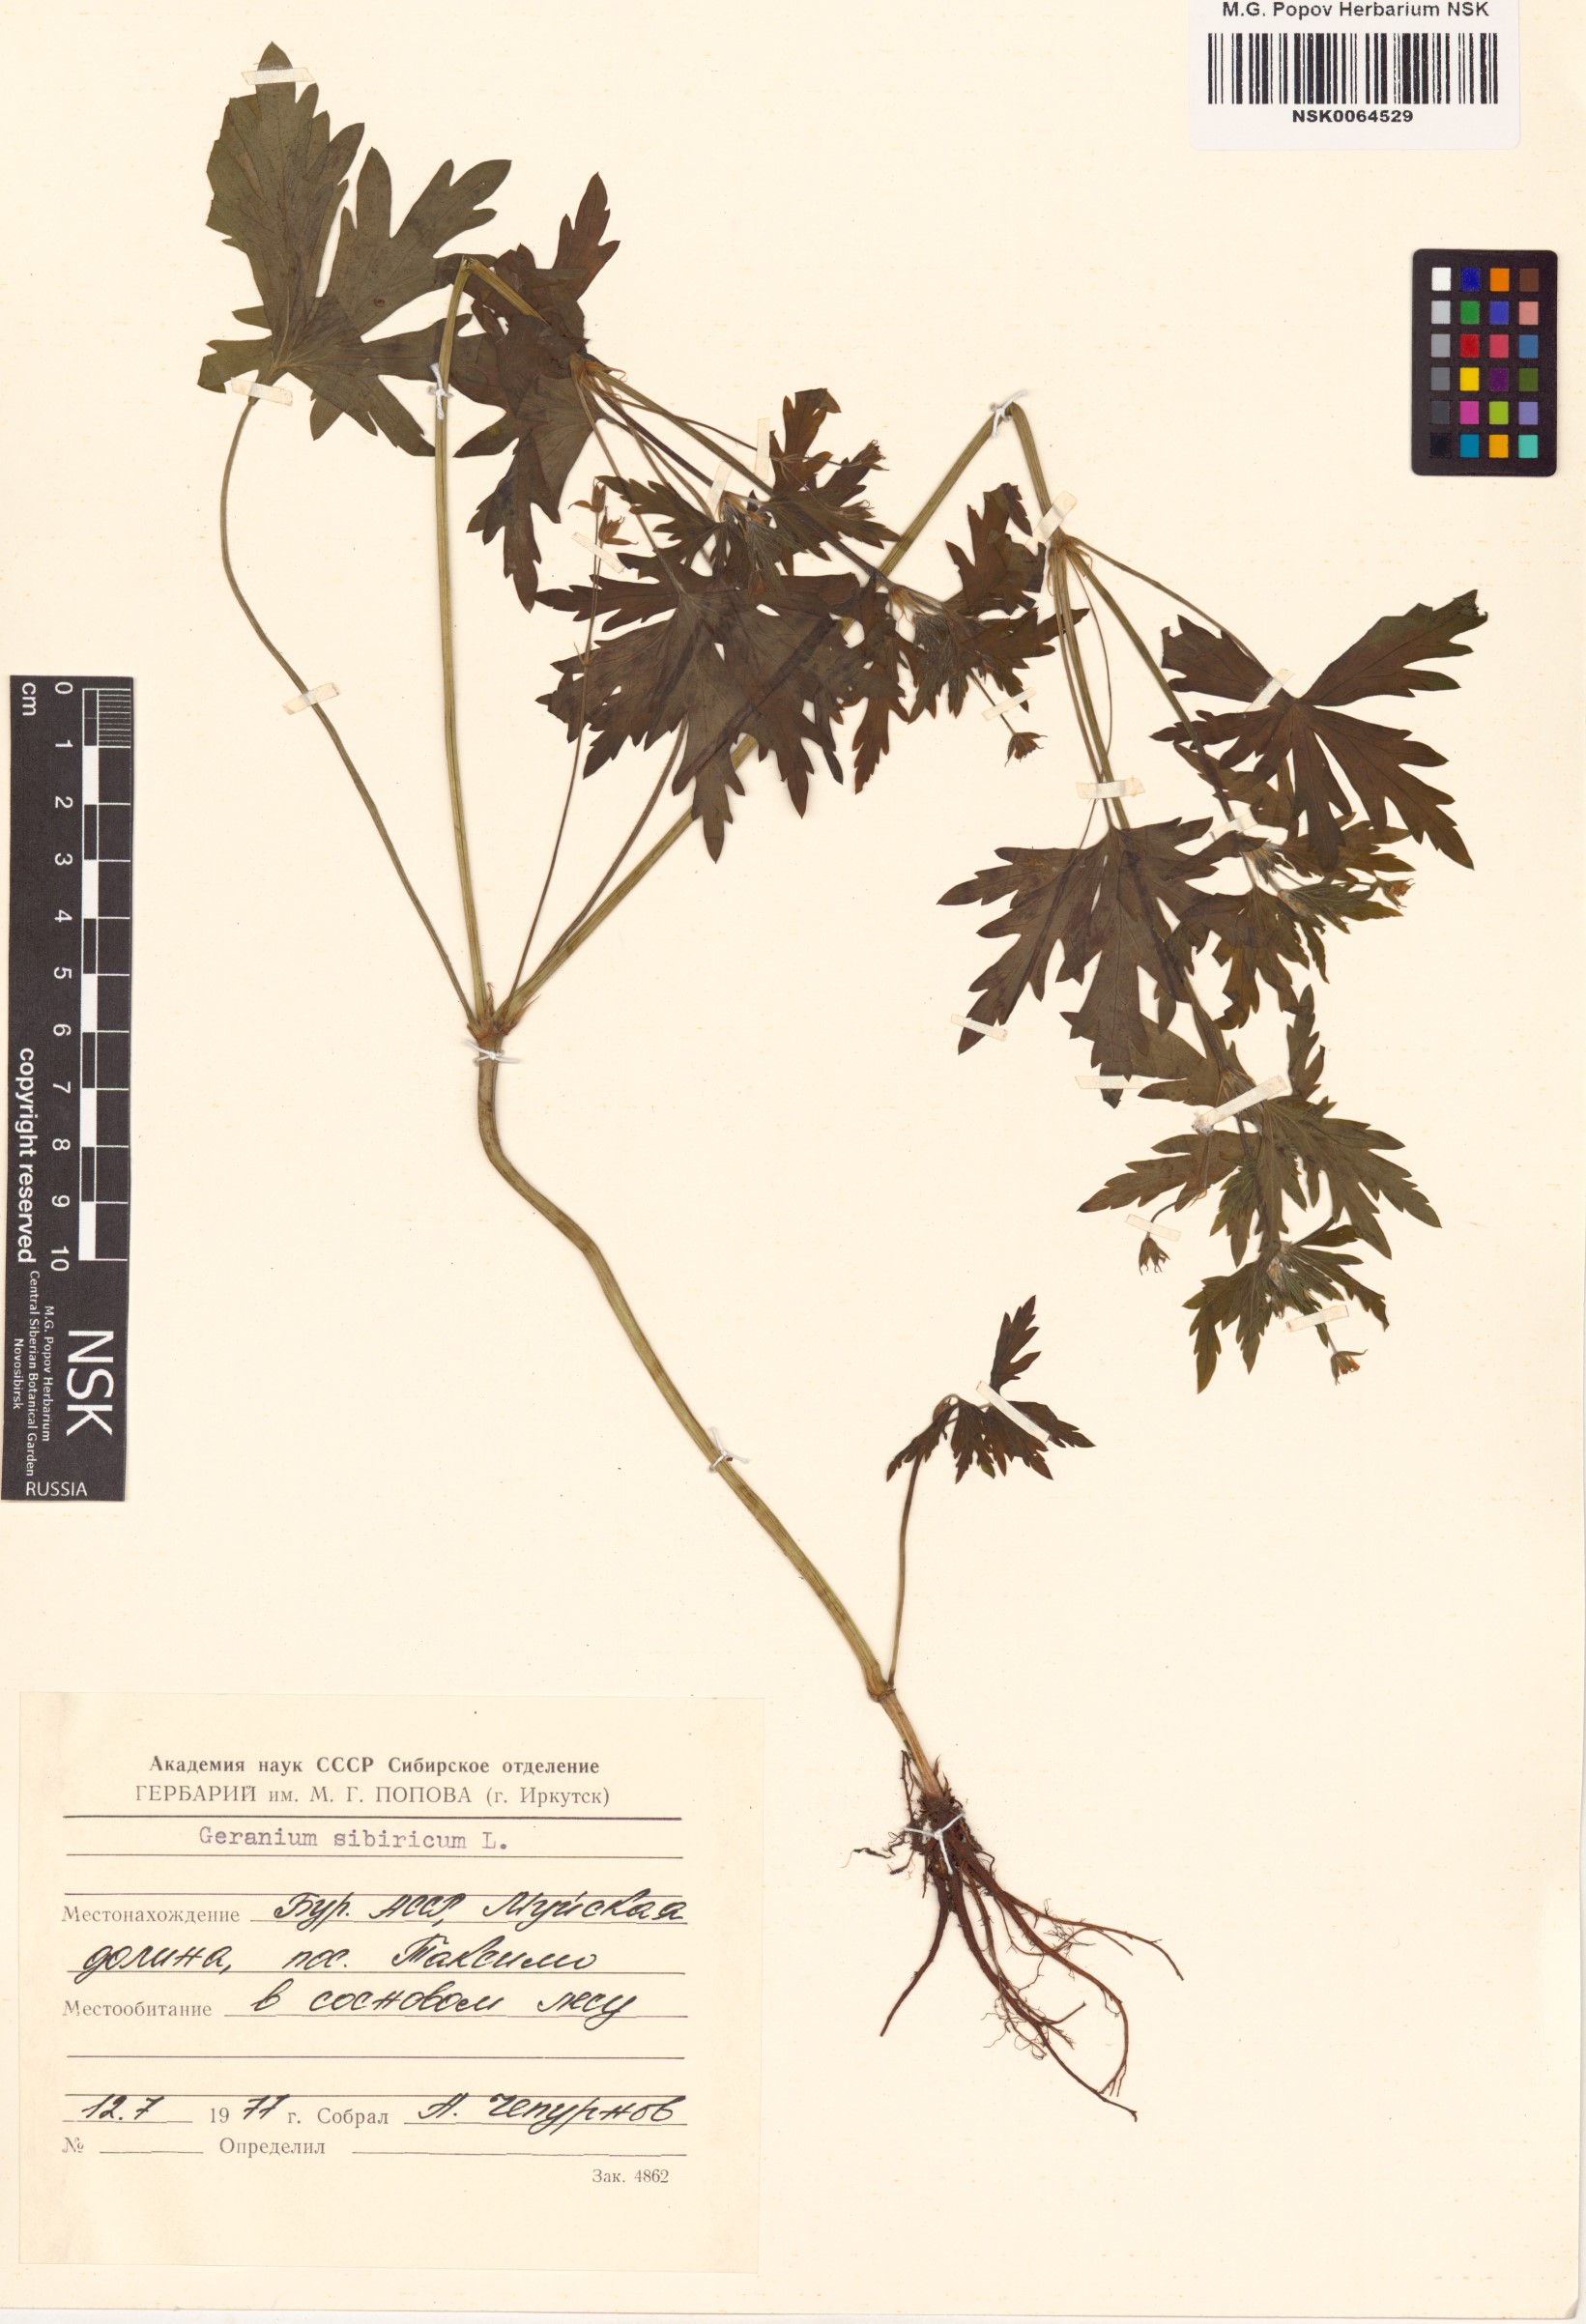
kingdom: Plantae
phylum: Tracheophyta
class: Magnoliopsida
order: Geraniales
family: Geraniaceae
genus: Geranium
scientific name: Geranium sibiricum
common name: Siberian crane's-bill
